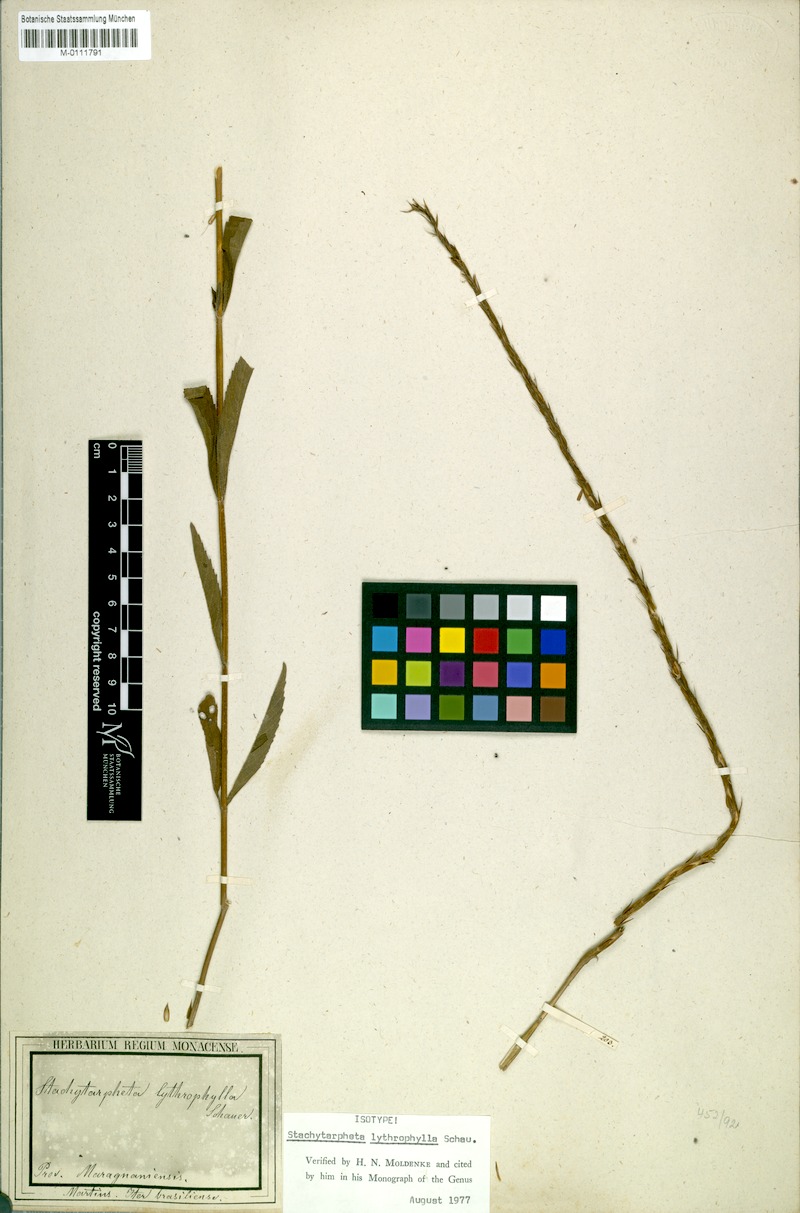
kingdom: Plantae
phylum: Tracheophyta
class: Magnoliopsida
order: Lamiales
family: Verbenaceae
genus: Stachytarpheta
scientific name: Stachytarpheta lythrophylla
